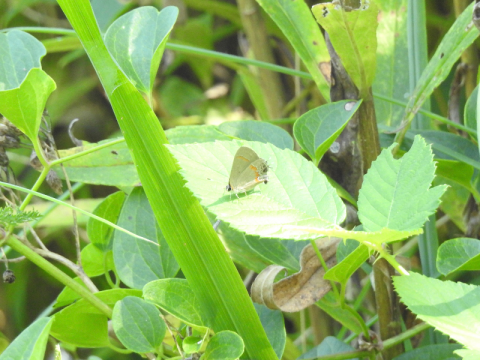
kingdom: Animalia
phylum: Arthropoda
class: Insecta
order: Lepidoptera
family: Lycaenidae
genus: Calycopis
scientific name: Calycopis cecrops
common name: Red-banded Hairstreak
